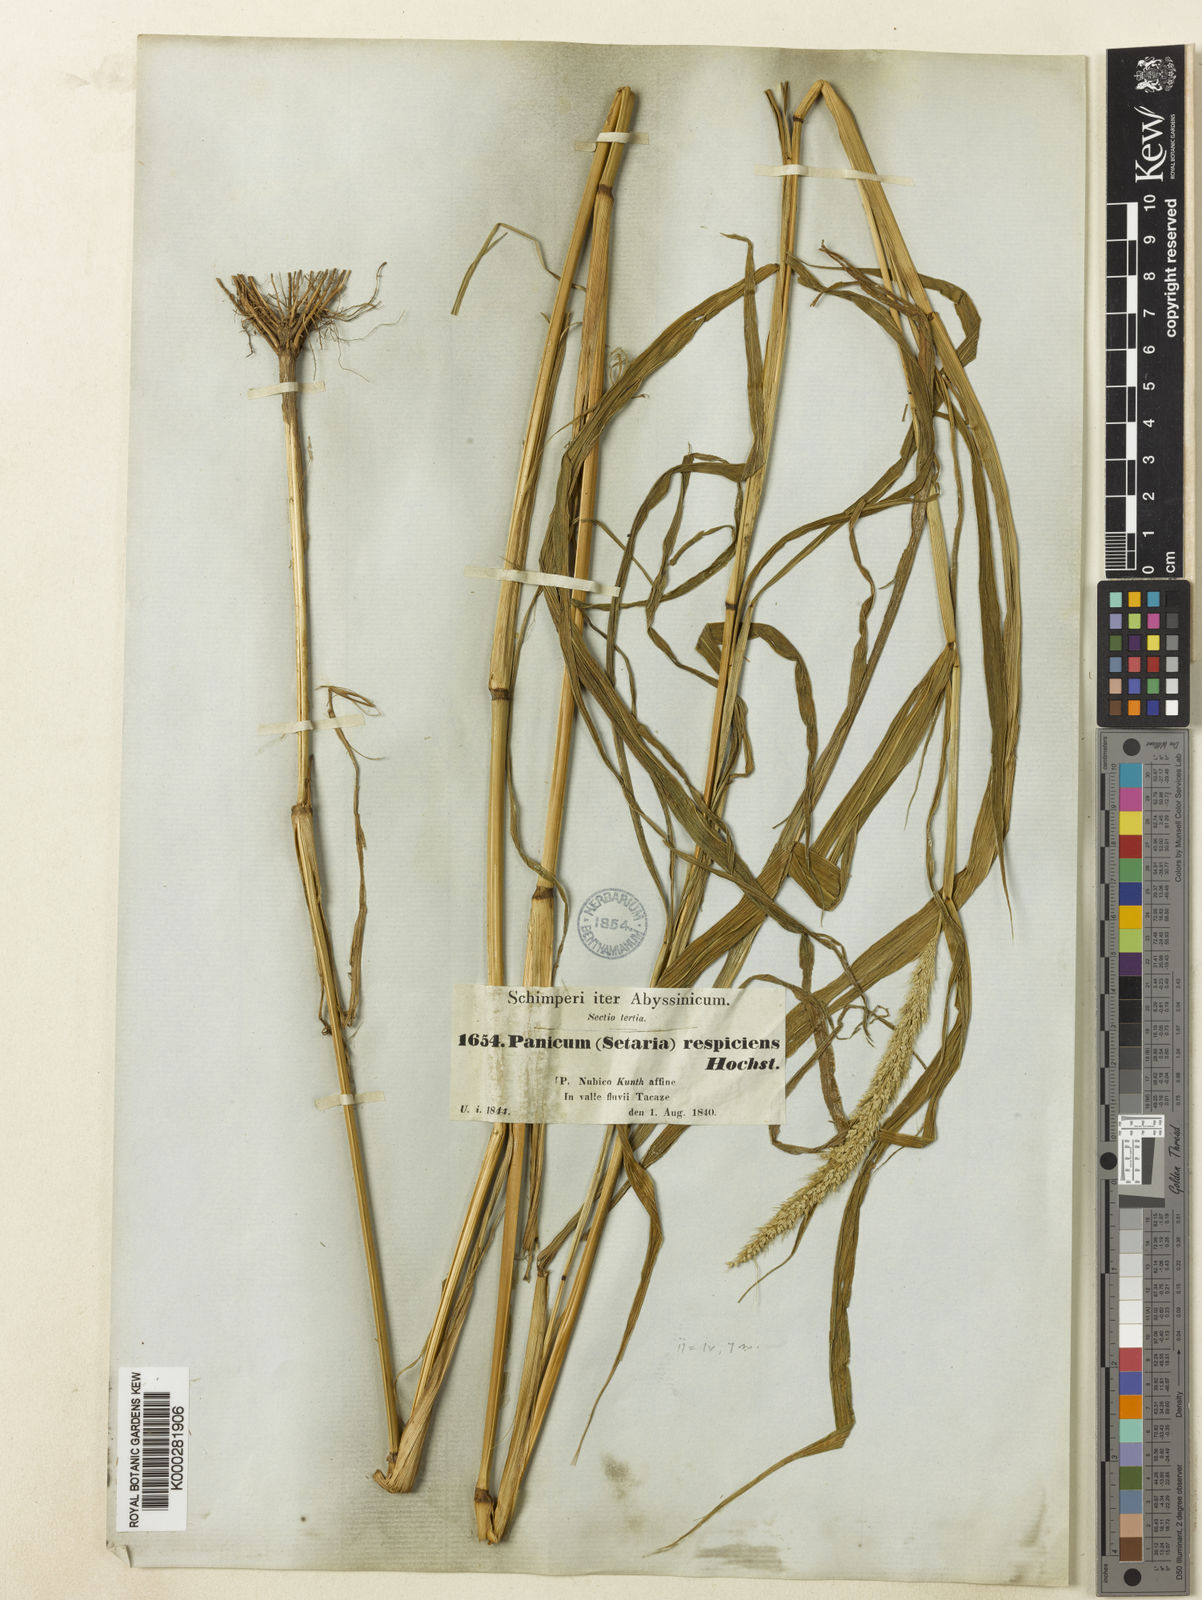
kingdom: Plantae
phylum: Tracheophyta
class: Liliopsida
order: Poales
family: Poaceae
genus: Setaria
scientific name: Setaria verticillata
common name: Hooked bristlegrass
